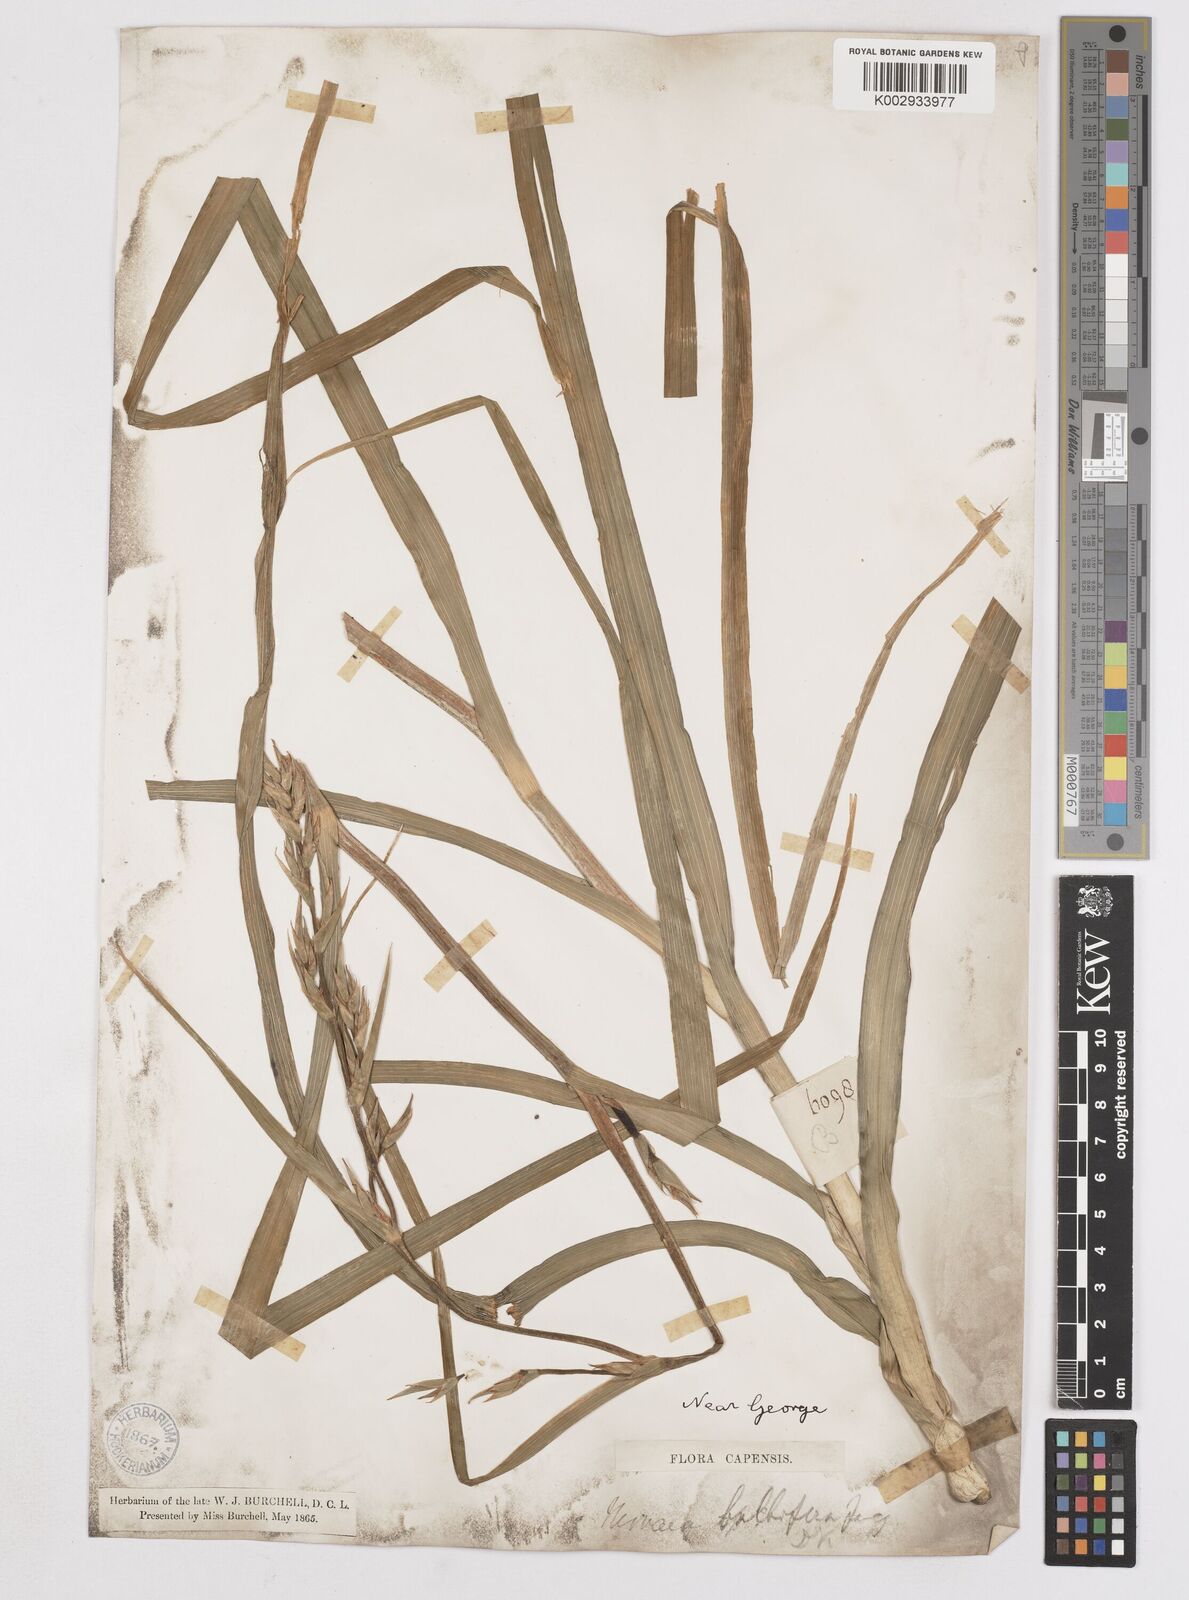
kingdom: Plantae
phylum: Tracheophyta
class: Liliopsida
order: Asparagales
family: Iridaceae
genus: Moraea
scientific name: Moraea ramosissima
